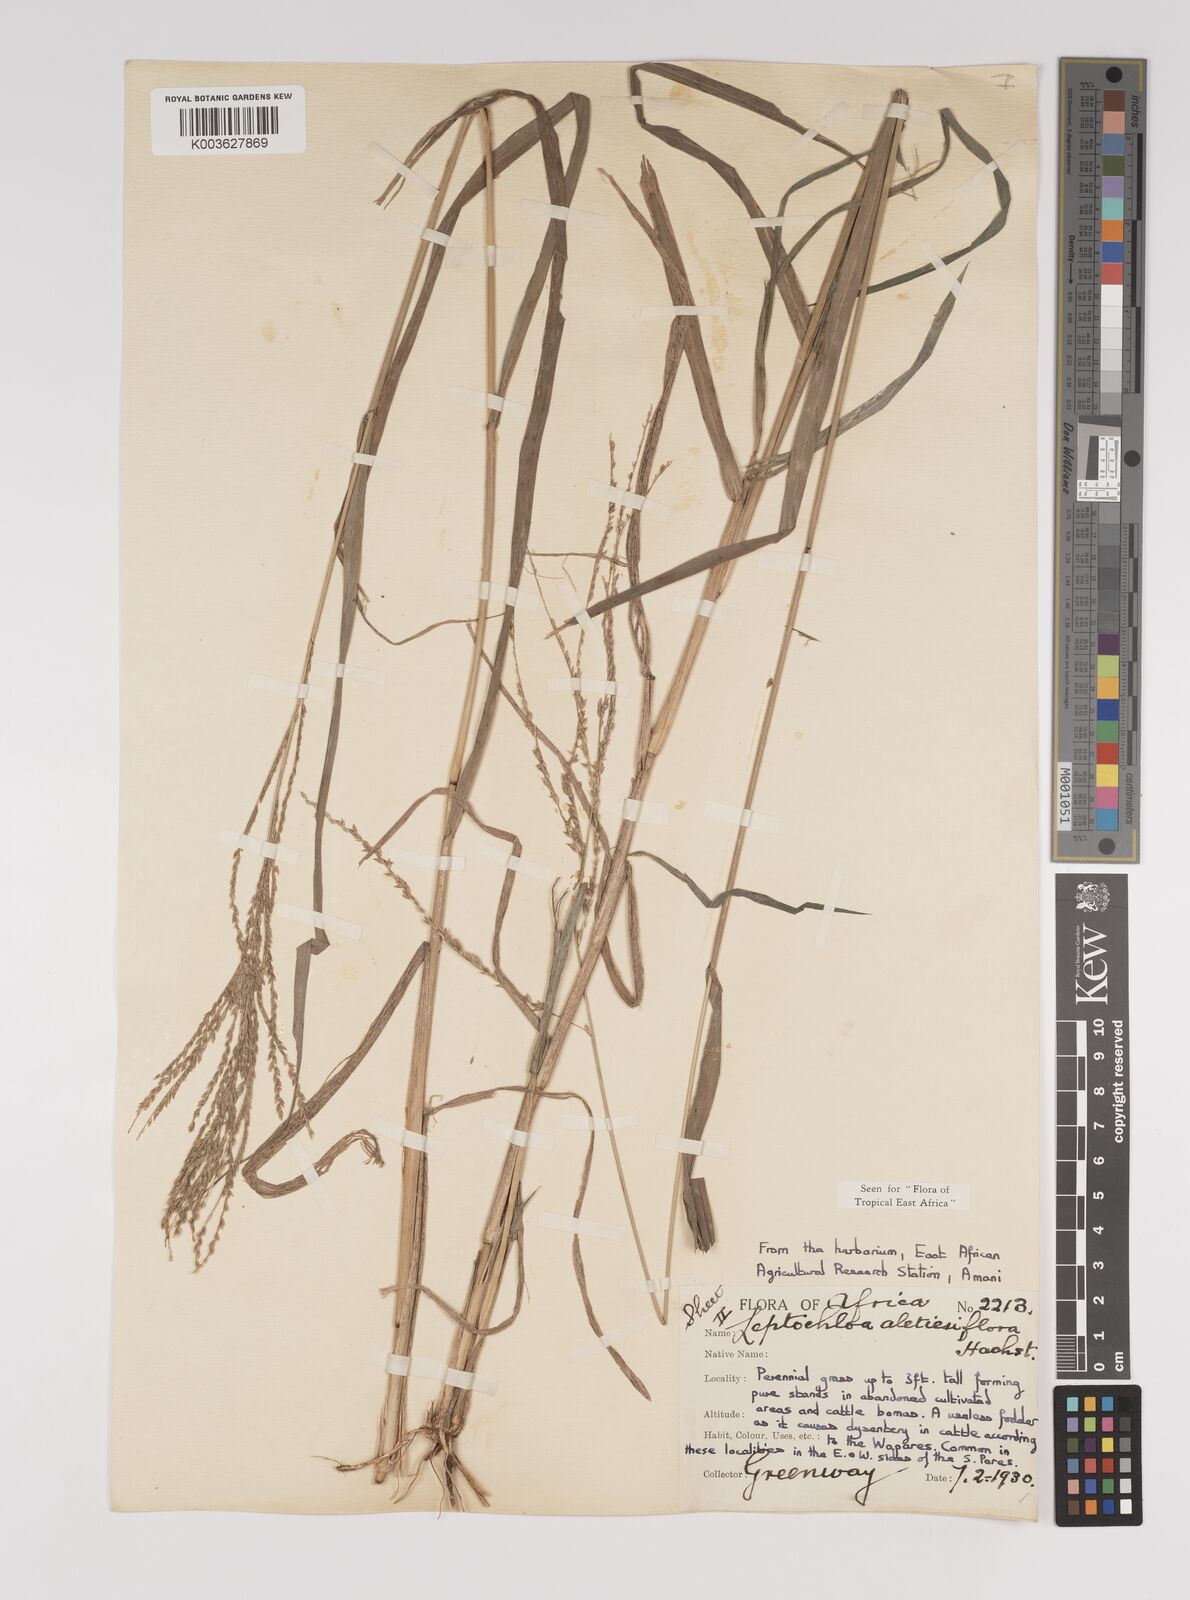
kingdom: Plantae
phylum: Tracheophyta
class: Liliopsida
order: Poales
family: Poaceae
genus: Disakisperma
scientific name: Disakisperma obtusiflorum
